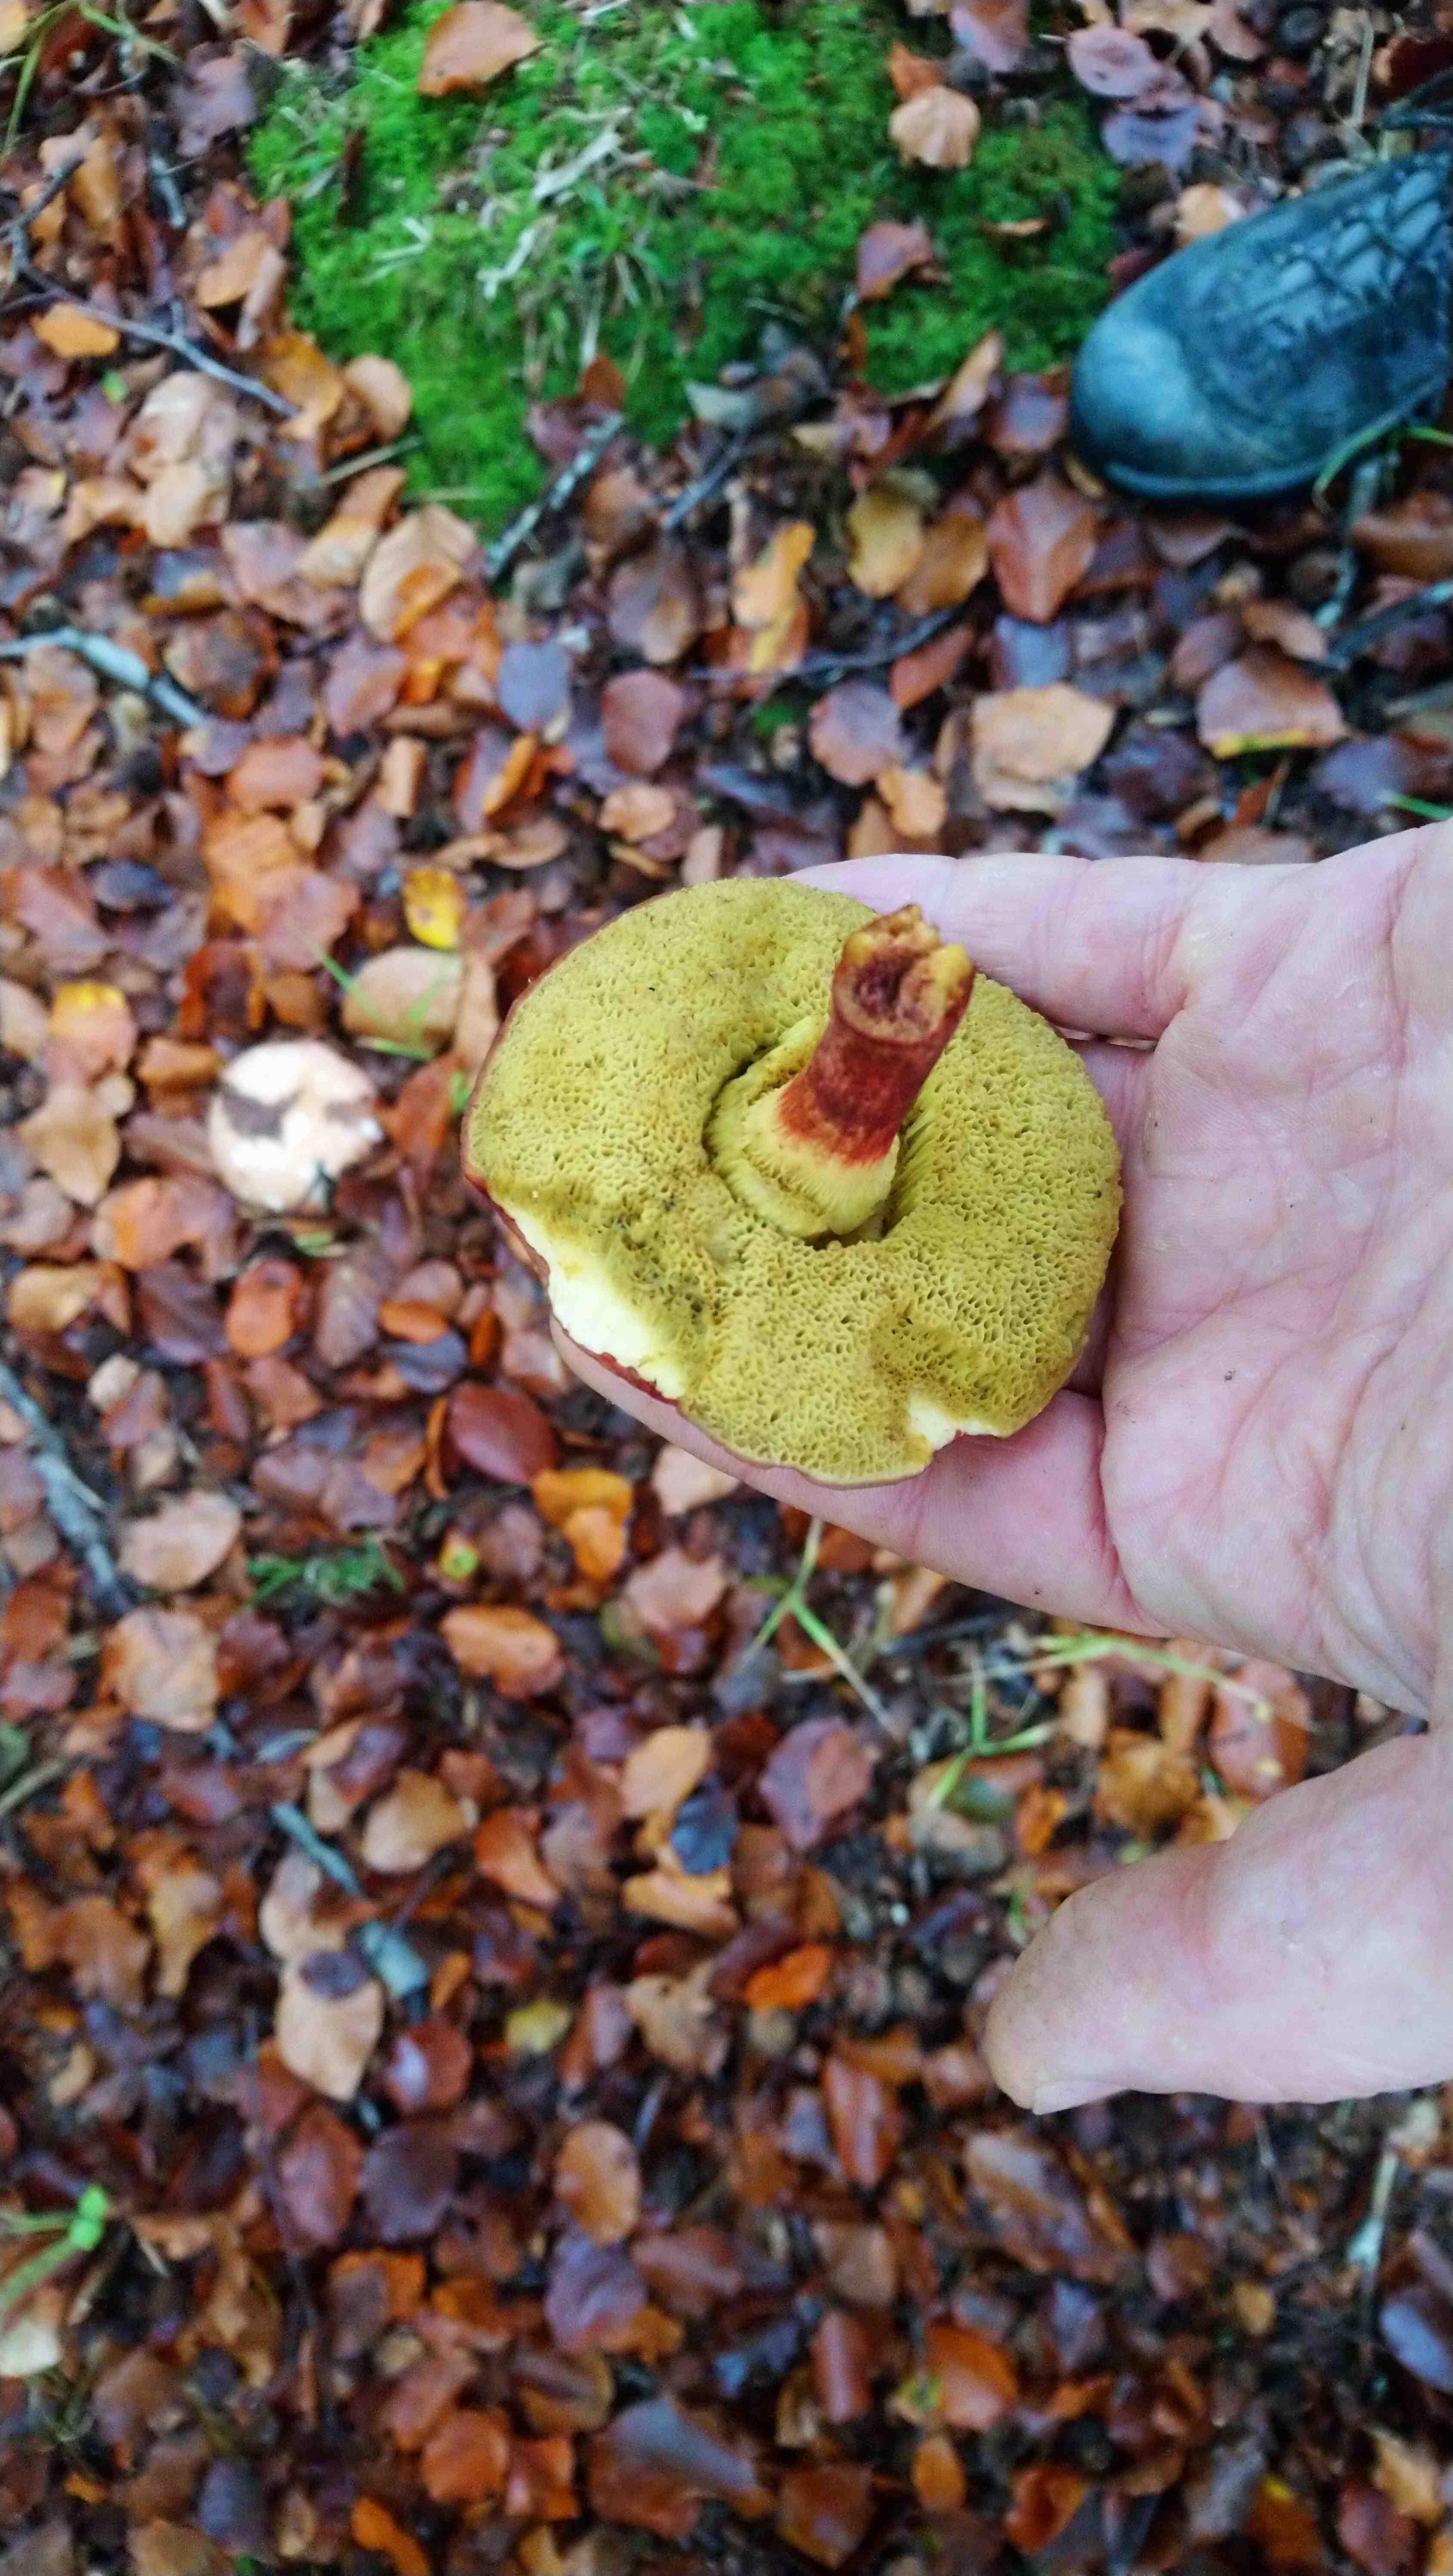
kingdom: Fungi
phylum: Basidiomycota
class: Agaricomycetes
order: Boletales
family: Boletaceae
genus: Xerocomellus
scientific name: Xerocomellus pruinatus
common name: dugget rørhat
